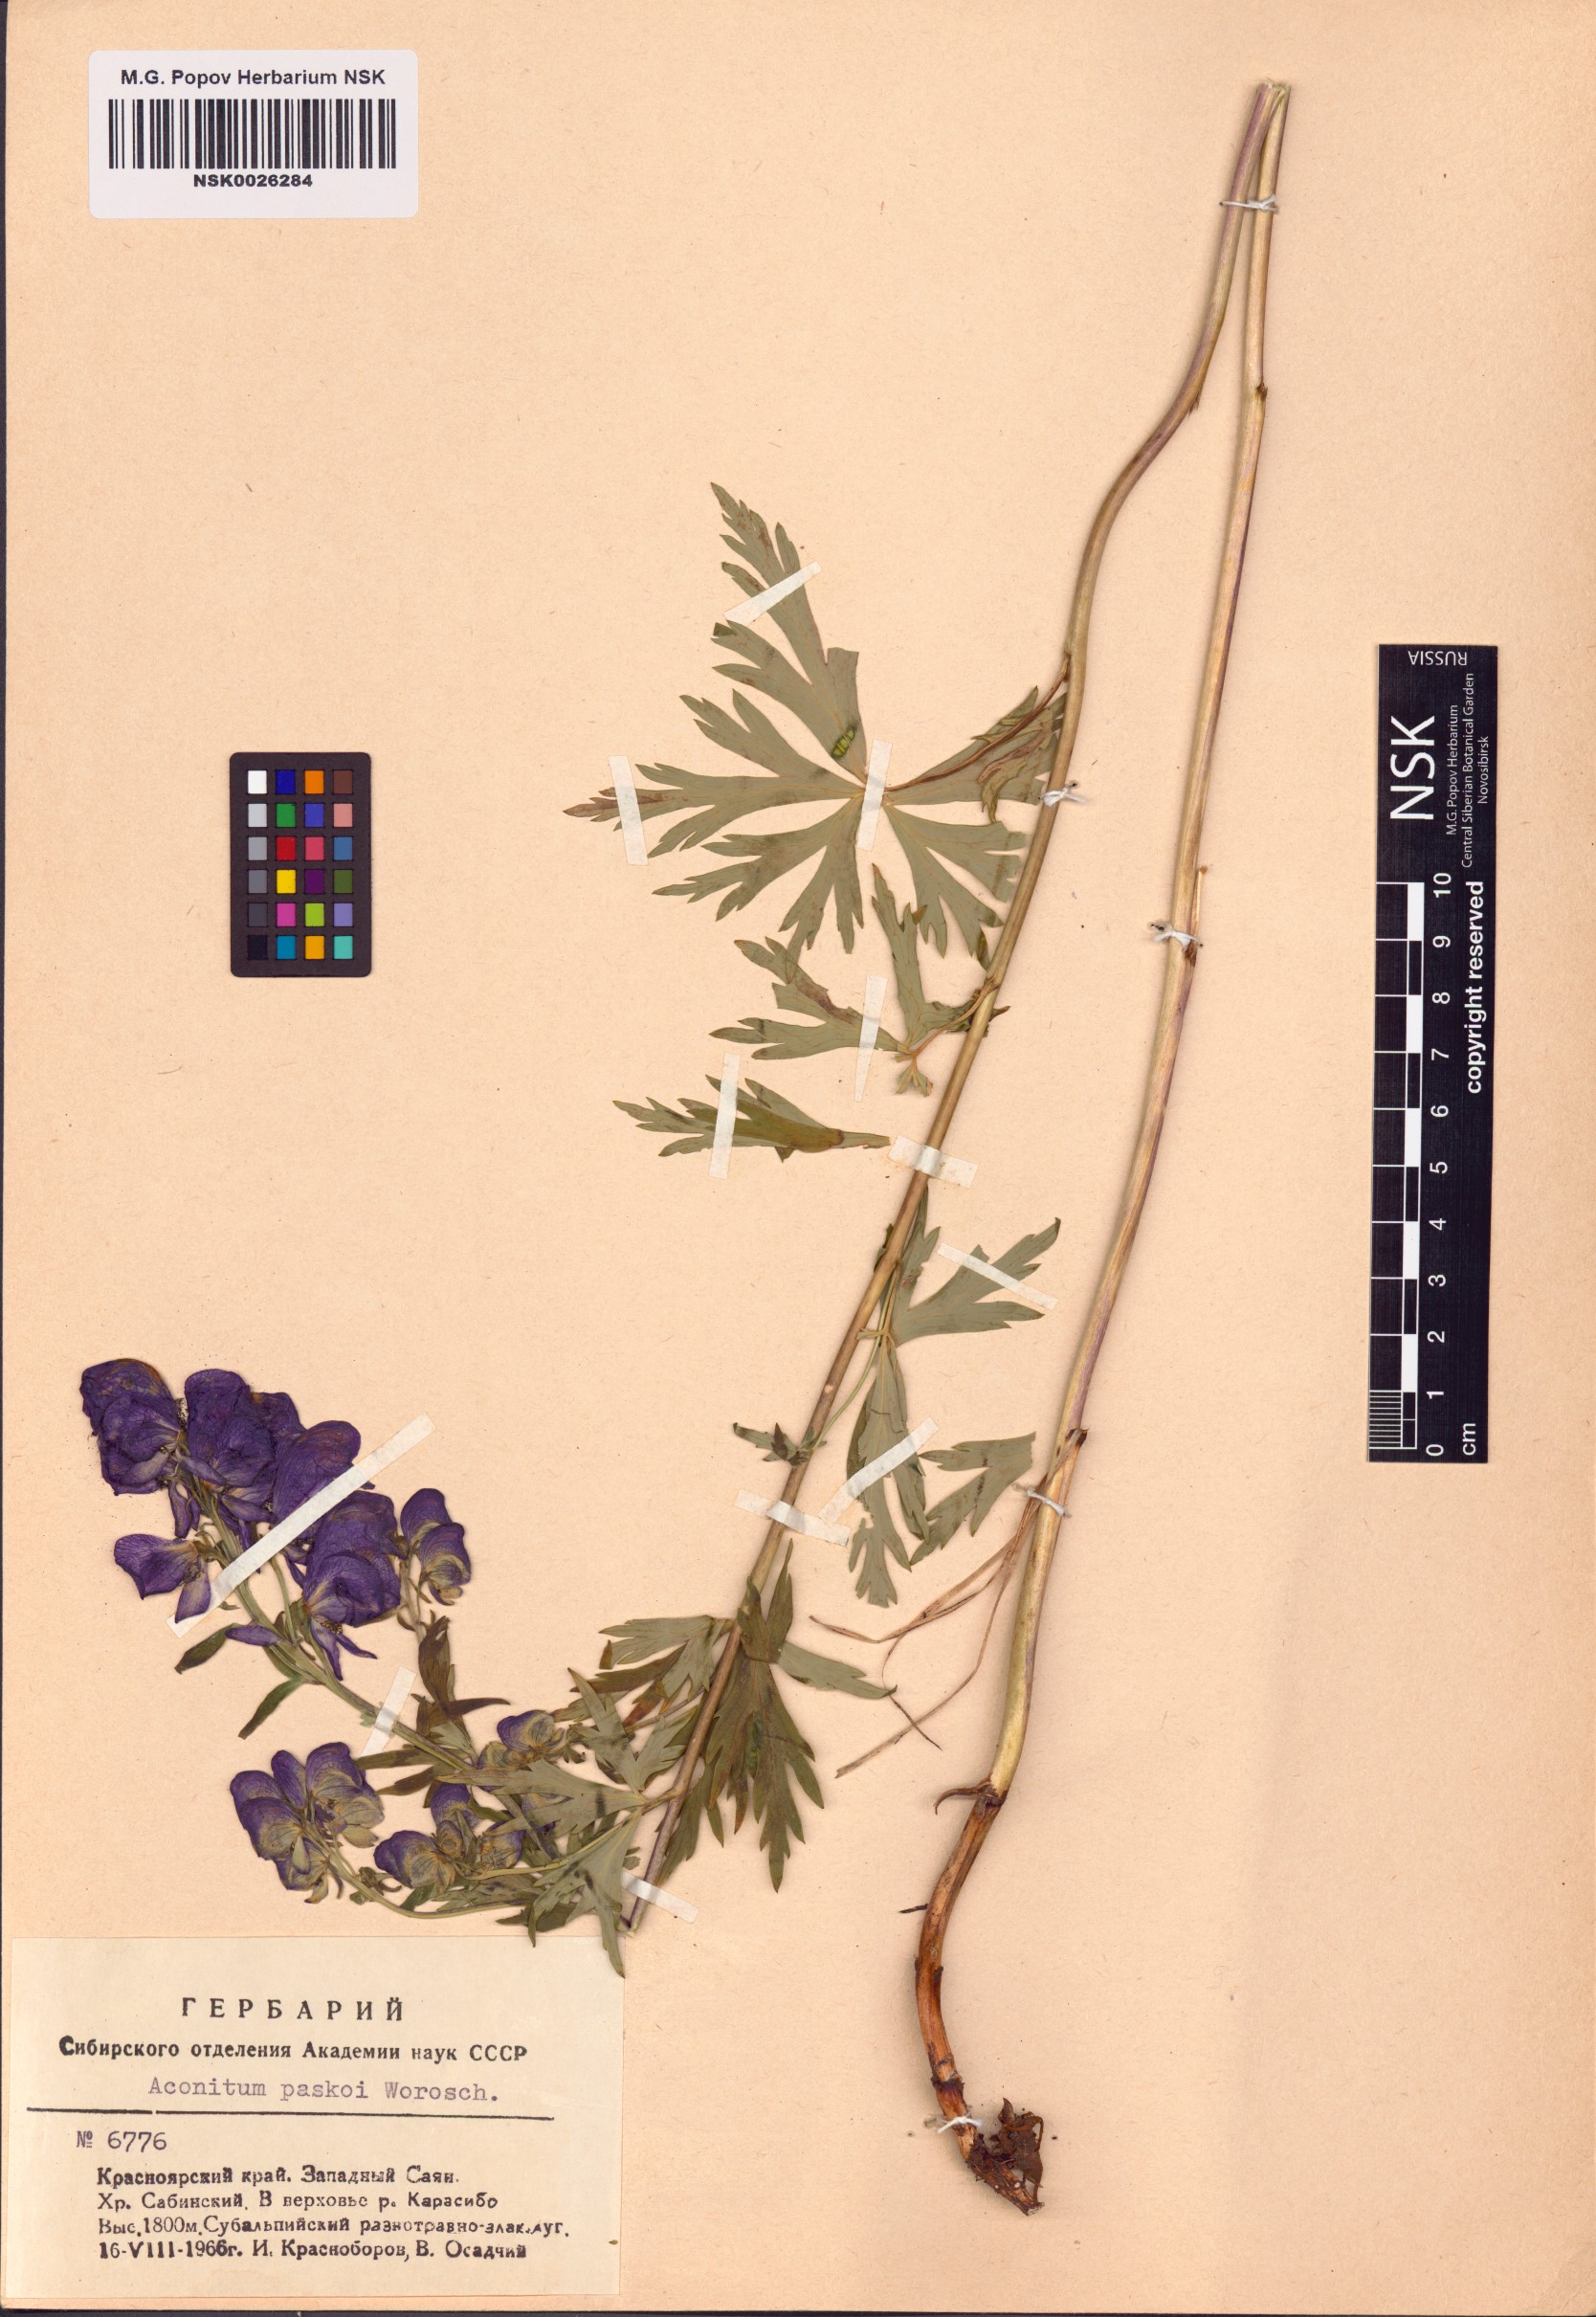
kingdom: Plantae
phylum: Tracheophyta
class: Magnoliopsida
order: Ranunculales
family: Ranunculaceae
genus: Aconitum
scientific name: Aconitum pascoi
